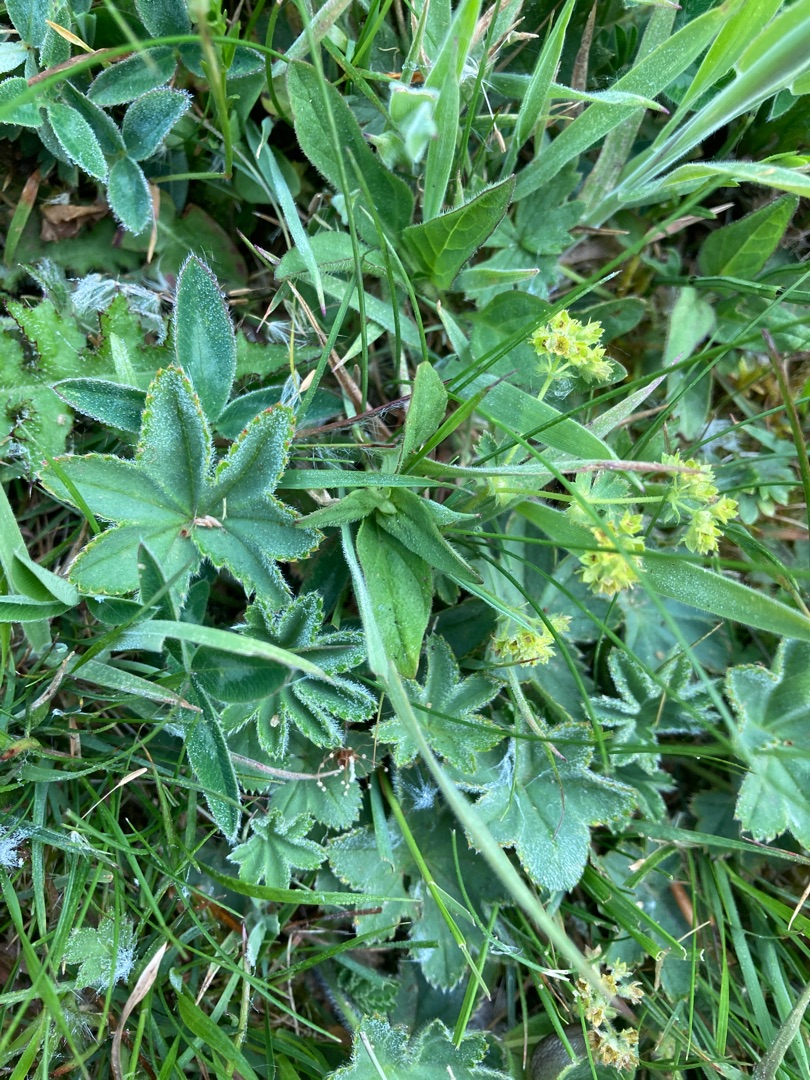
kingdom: Plantae
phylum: Tracheophyta
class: Magnoliopsida
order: Rosales
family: Rosaceae
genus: Alchemilla
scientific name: Alchemilla glaucescens
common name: Blågrøn løvefod
